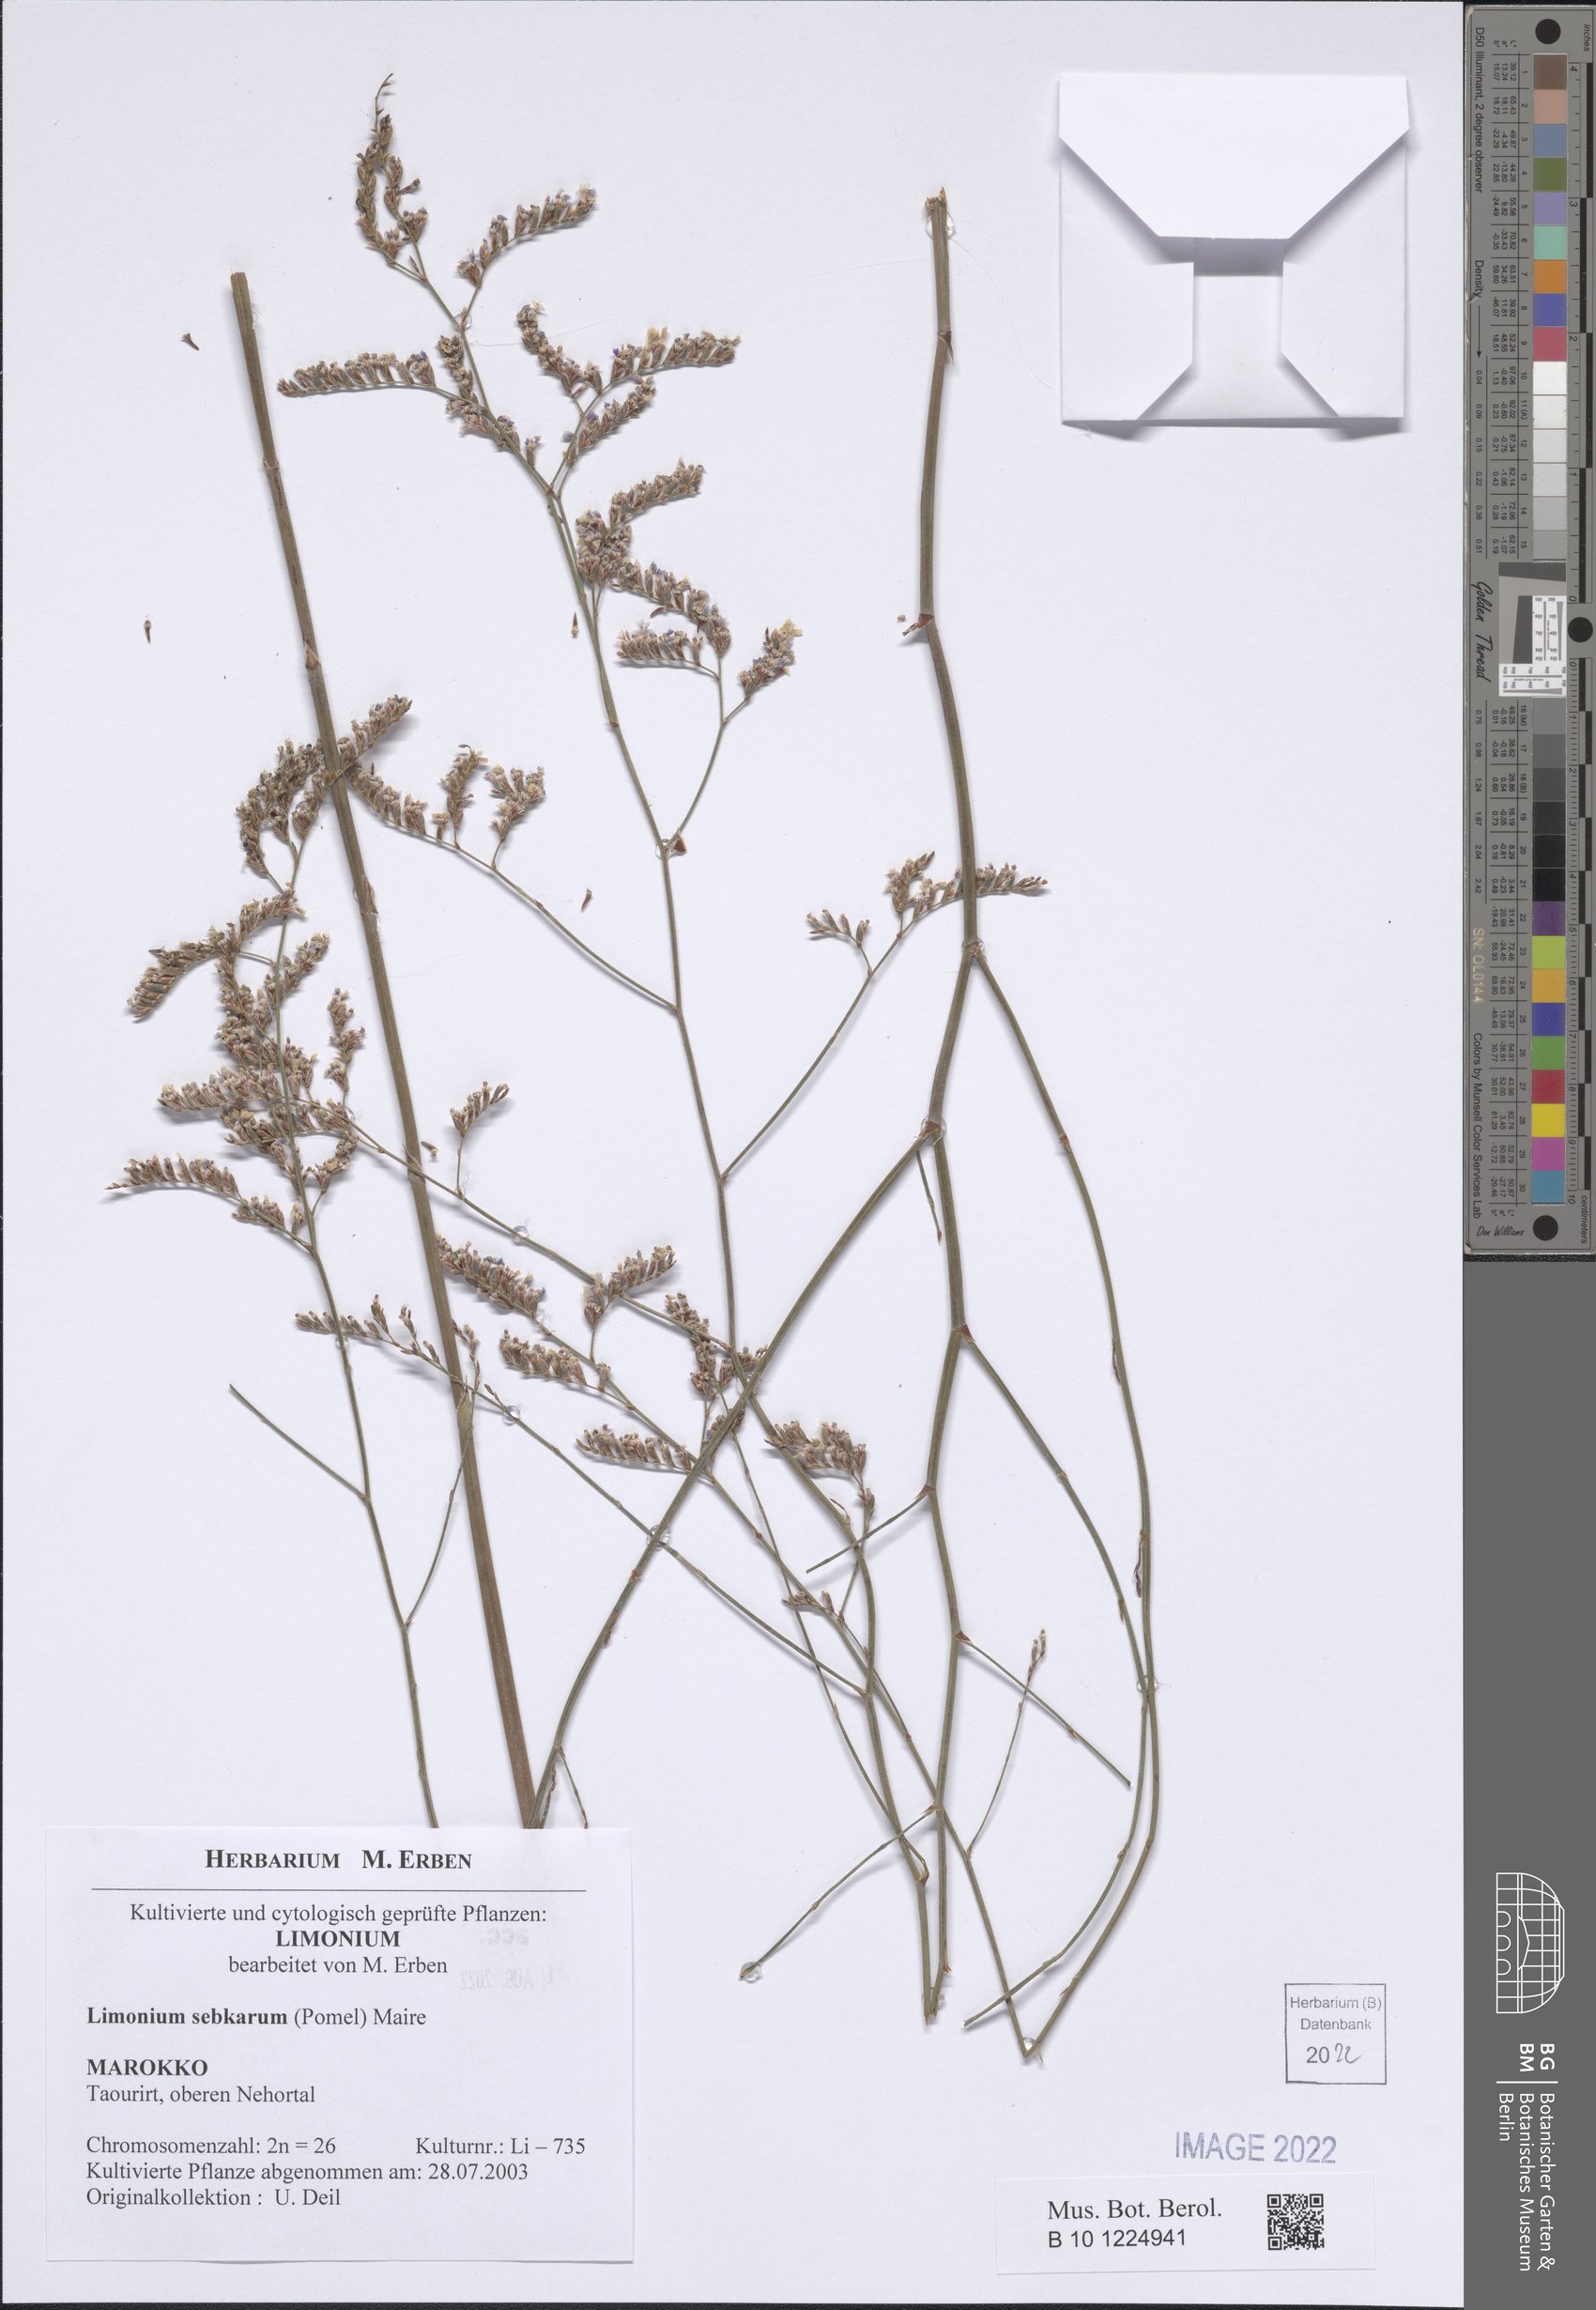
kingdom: Plantae
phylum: Tracheophyta
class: Magnoliopsida
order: Caryophyllales
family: Plumbaginaceae
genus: Limonium
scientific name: Limonium cymuliferum
